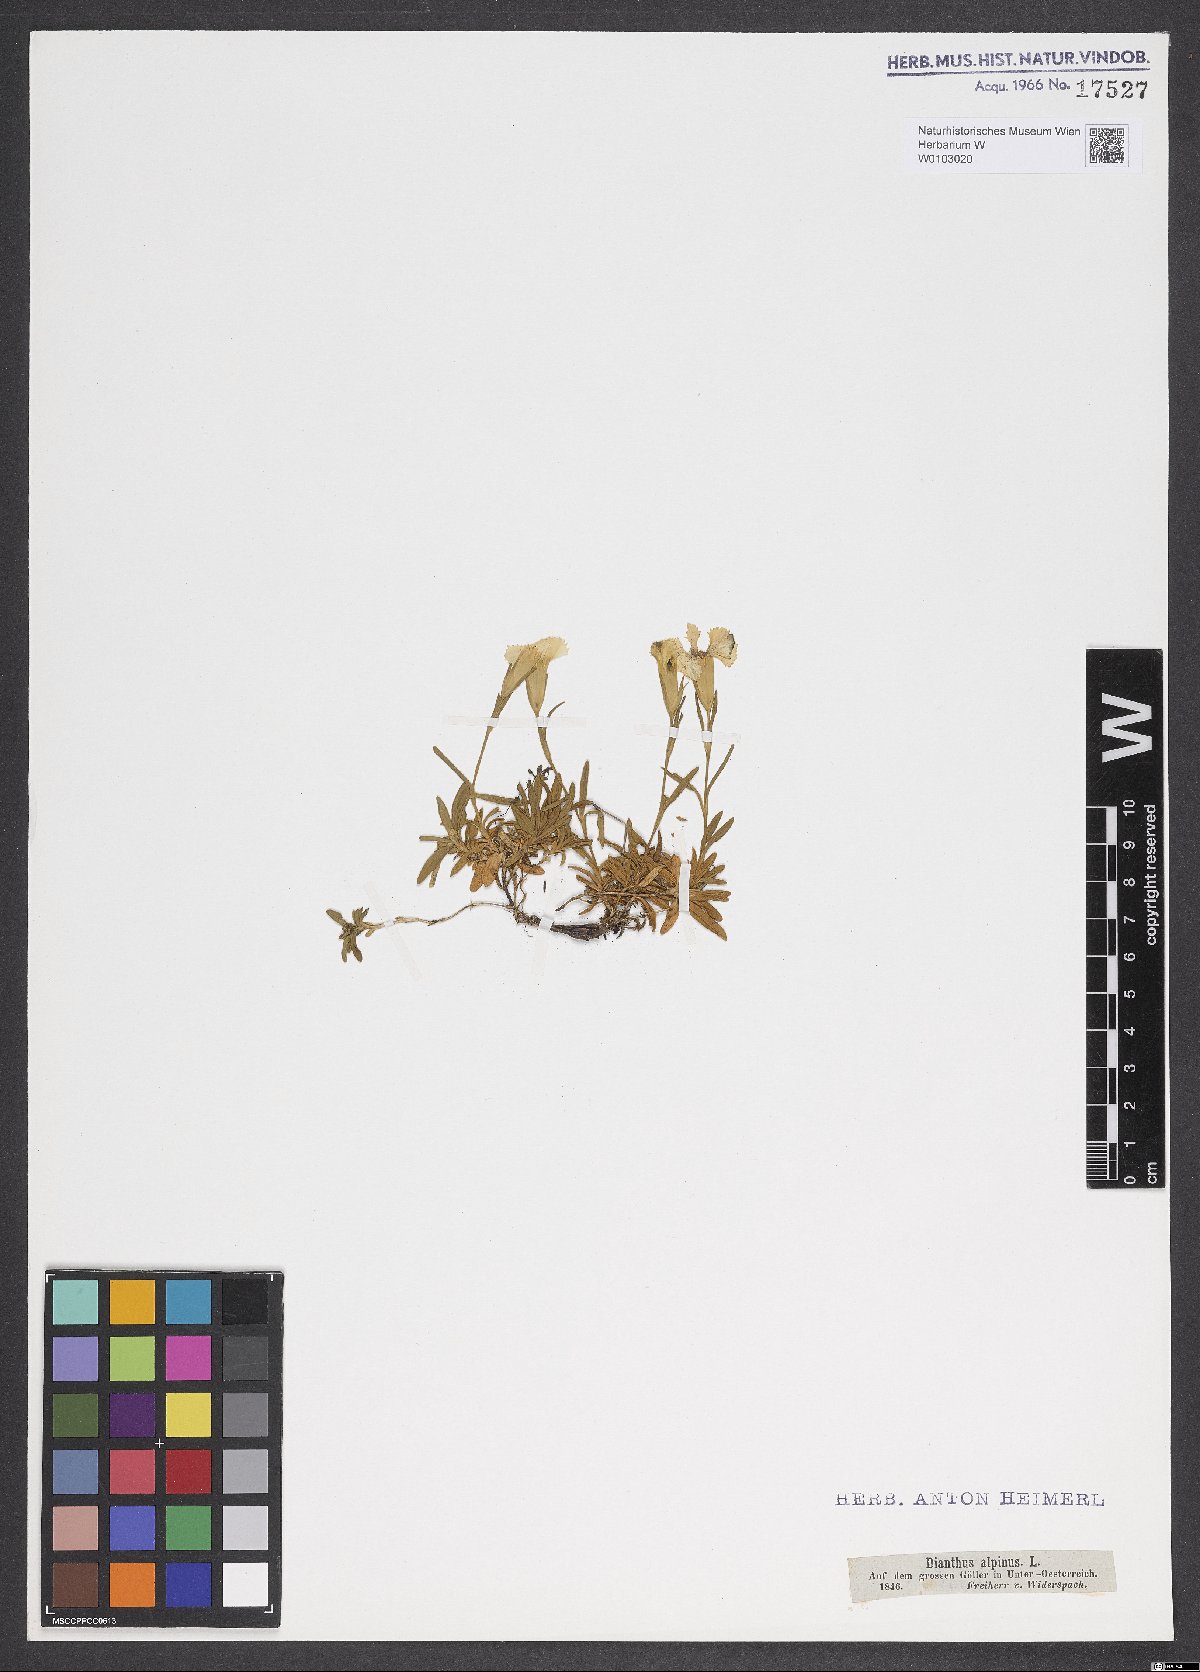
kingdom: Plantae
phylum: Tracheophyta
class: Magnoliopsida
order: Caryophyllales
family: Caryophyllaceae
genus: Dianthus
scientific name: Dianthus alpinus
